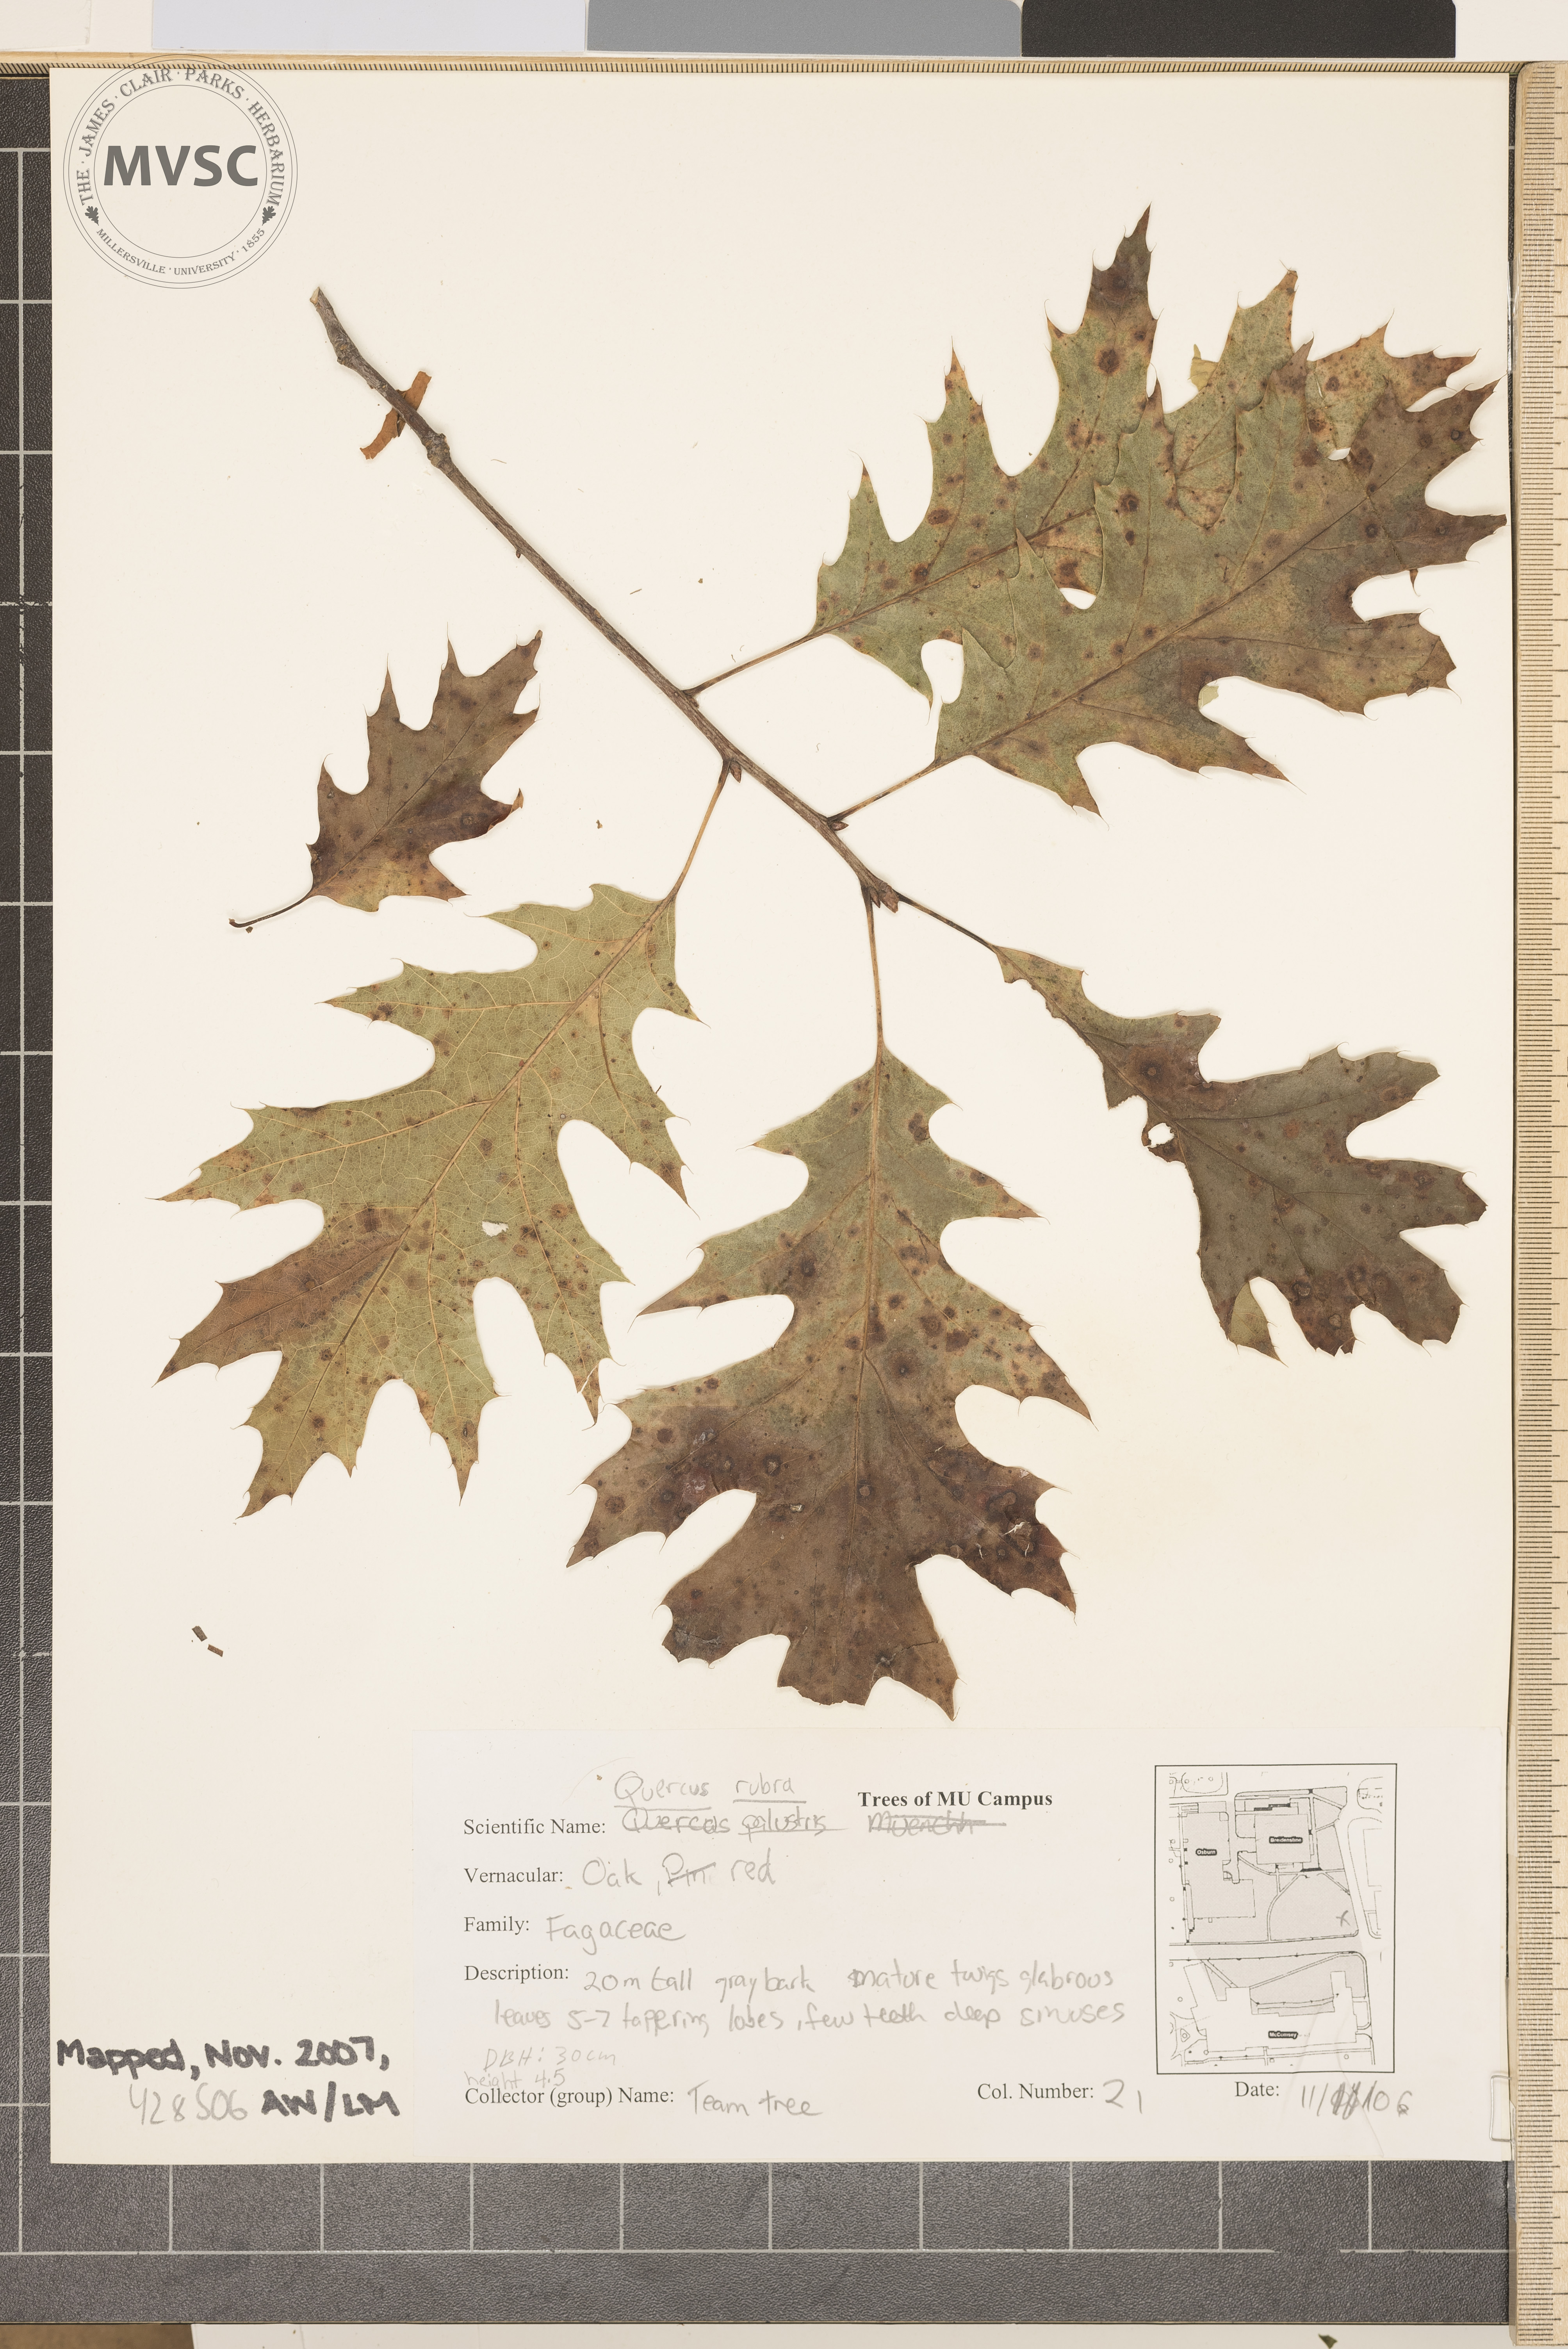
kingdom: Plantae
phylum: Tracheophyta
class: Magnoliopsida
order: Fagales
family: Fagaceae
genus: Quercus
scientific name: Quercus rubra
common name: Northern Red Oak
